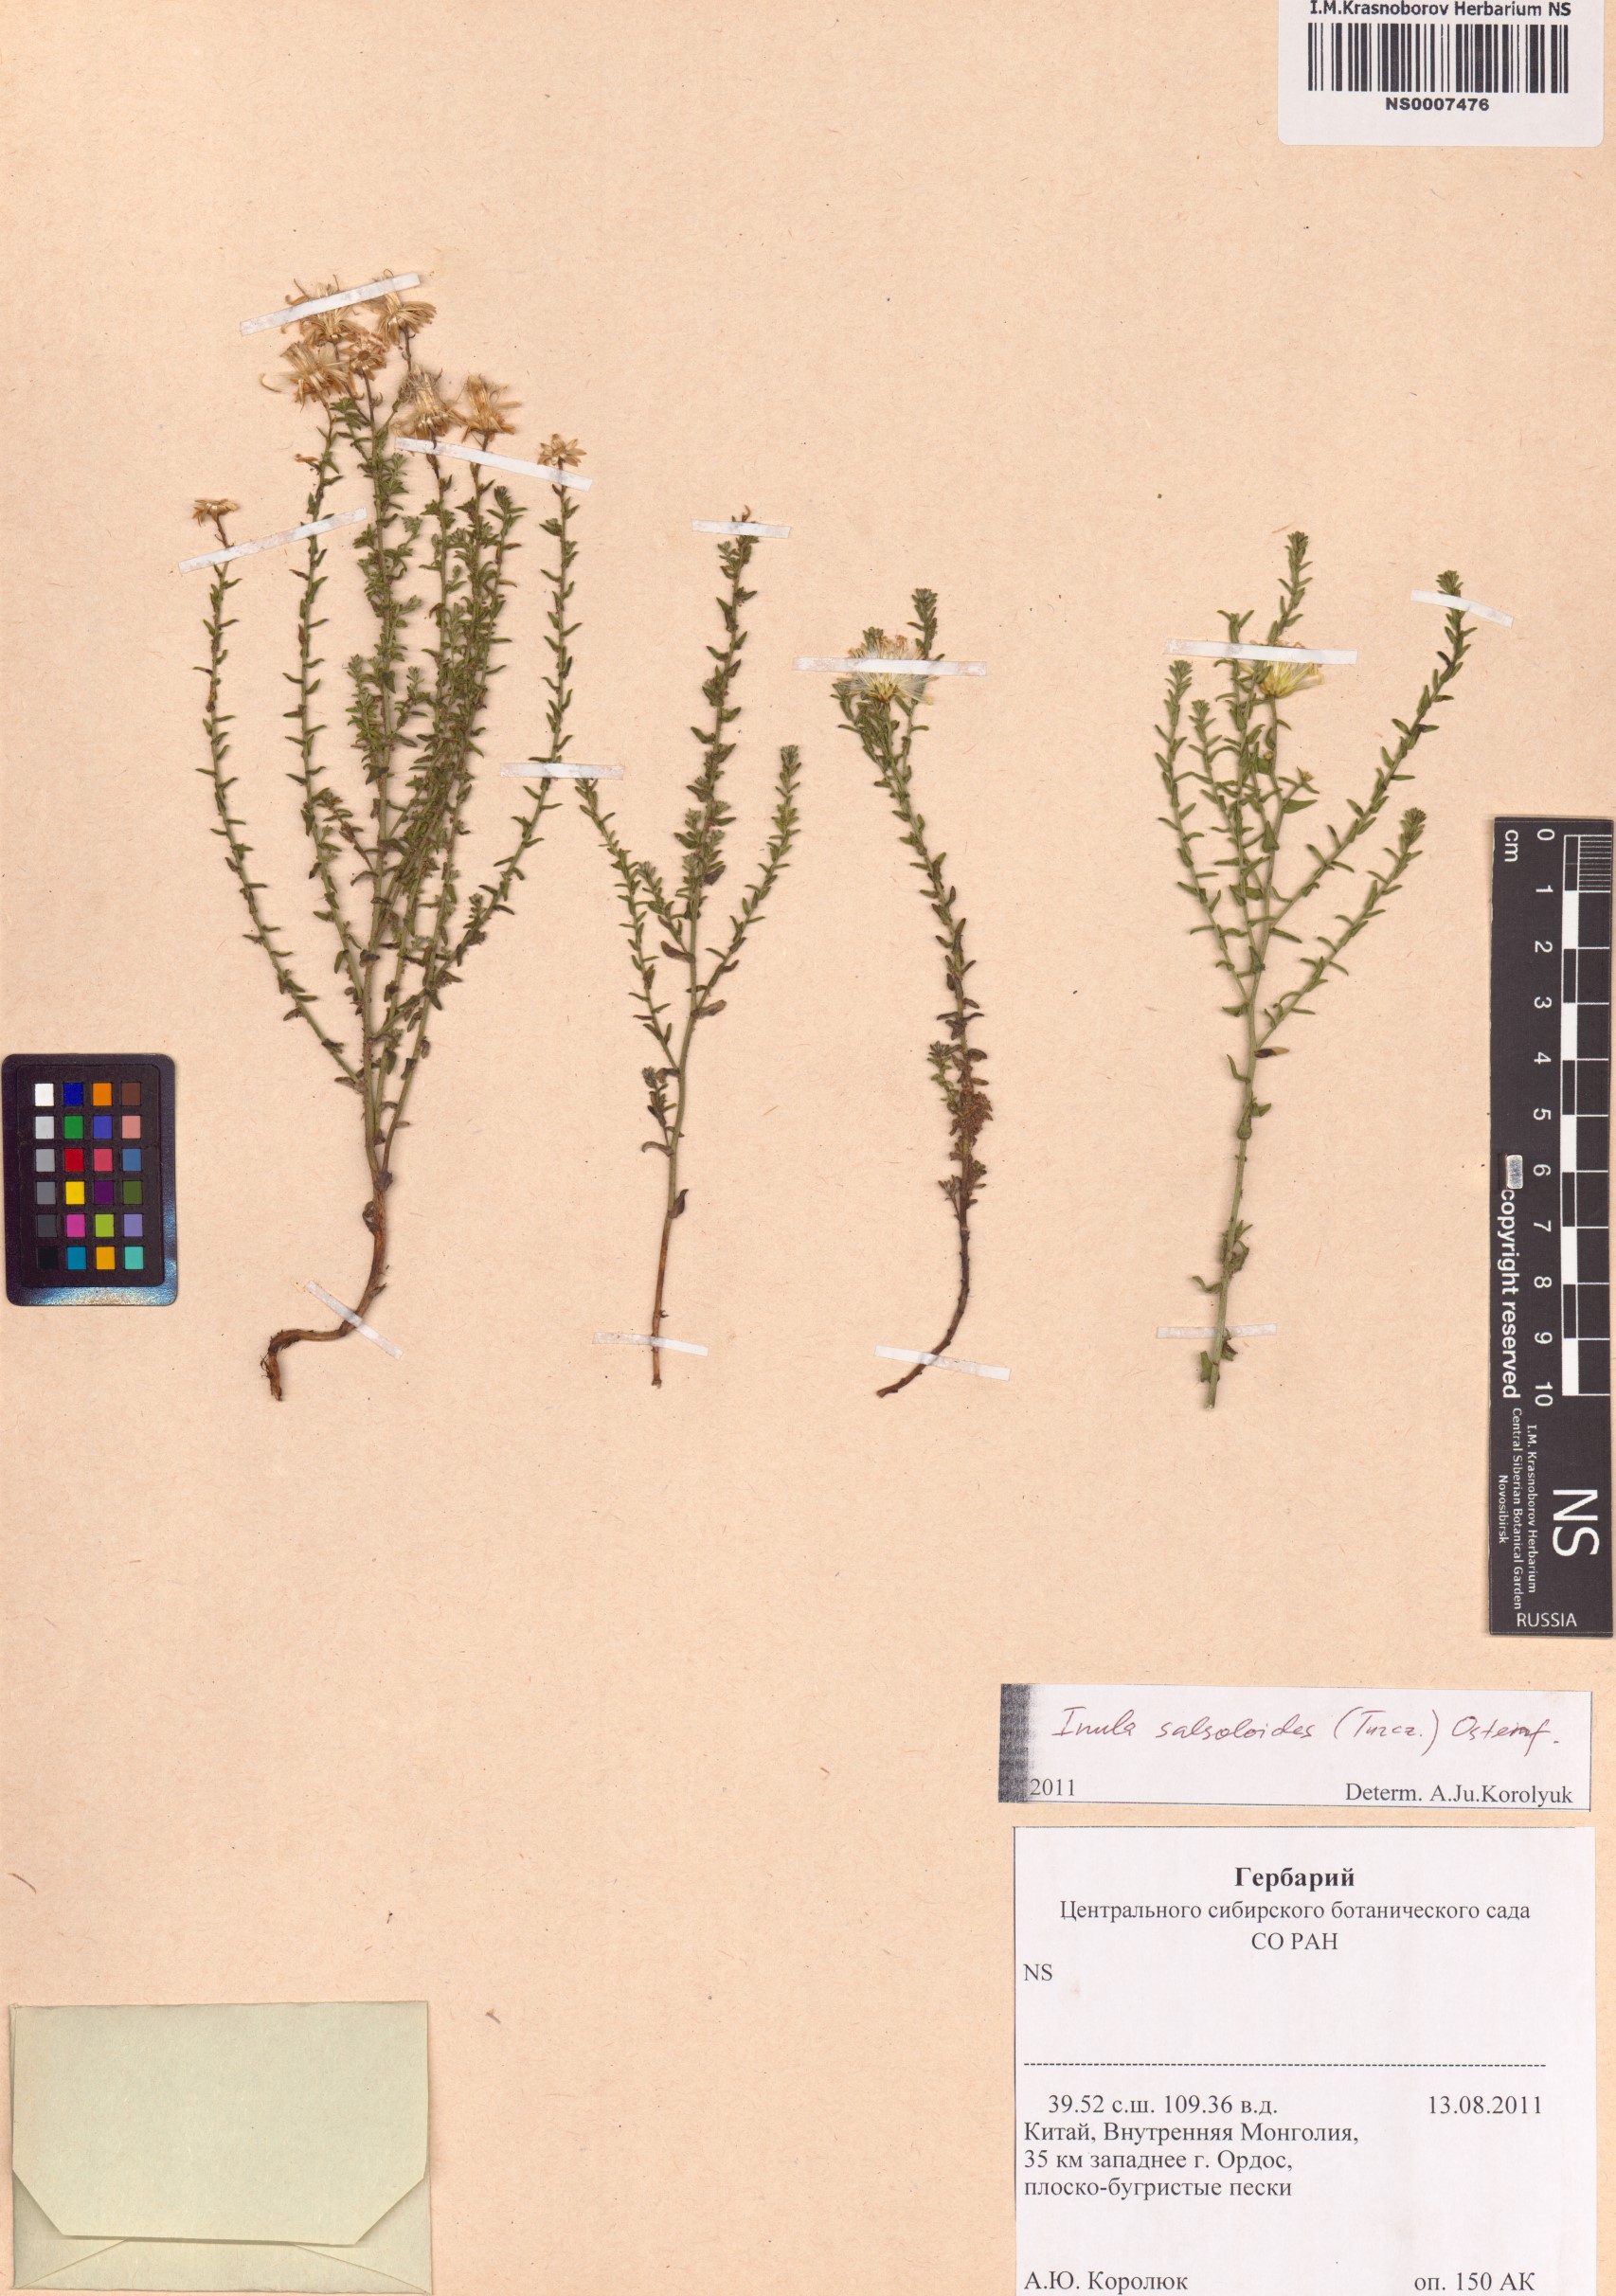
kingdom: Plantae
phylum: Tracheophyta
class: Magnoliopsida
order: Asterales
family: Asteraceae
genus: Inula
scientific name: Inula salsoloides
